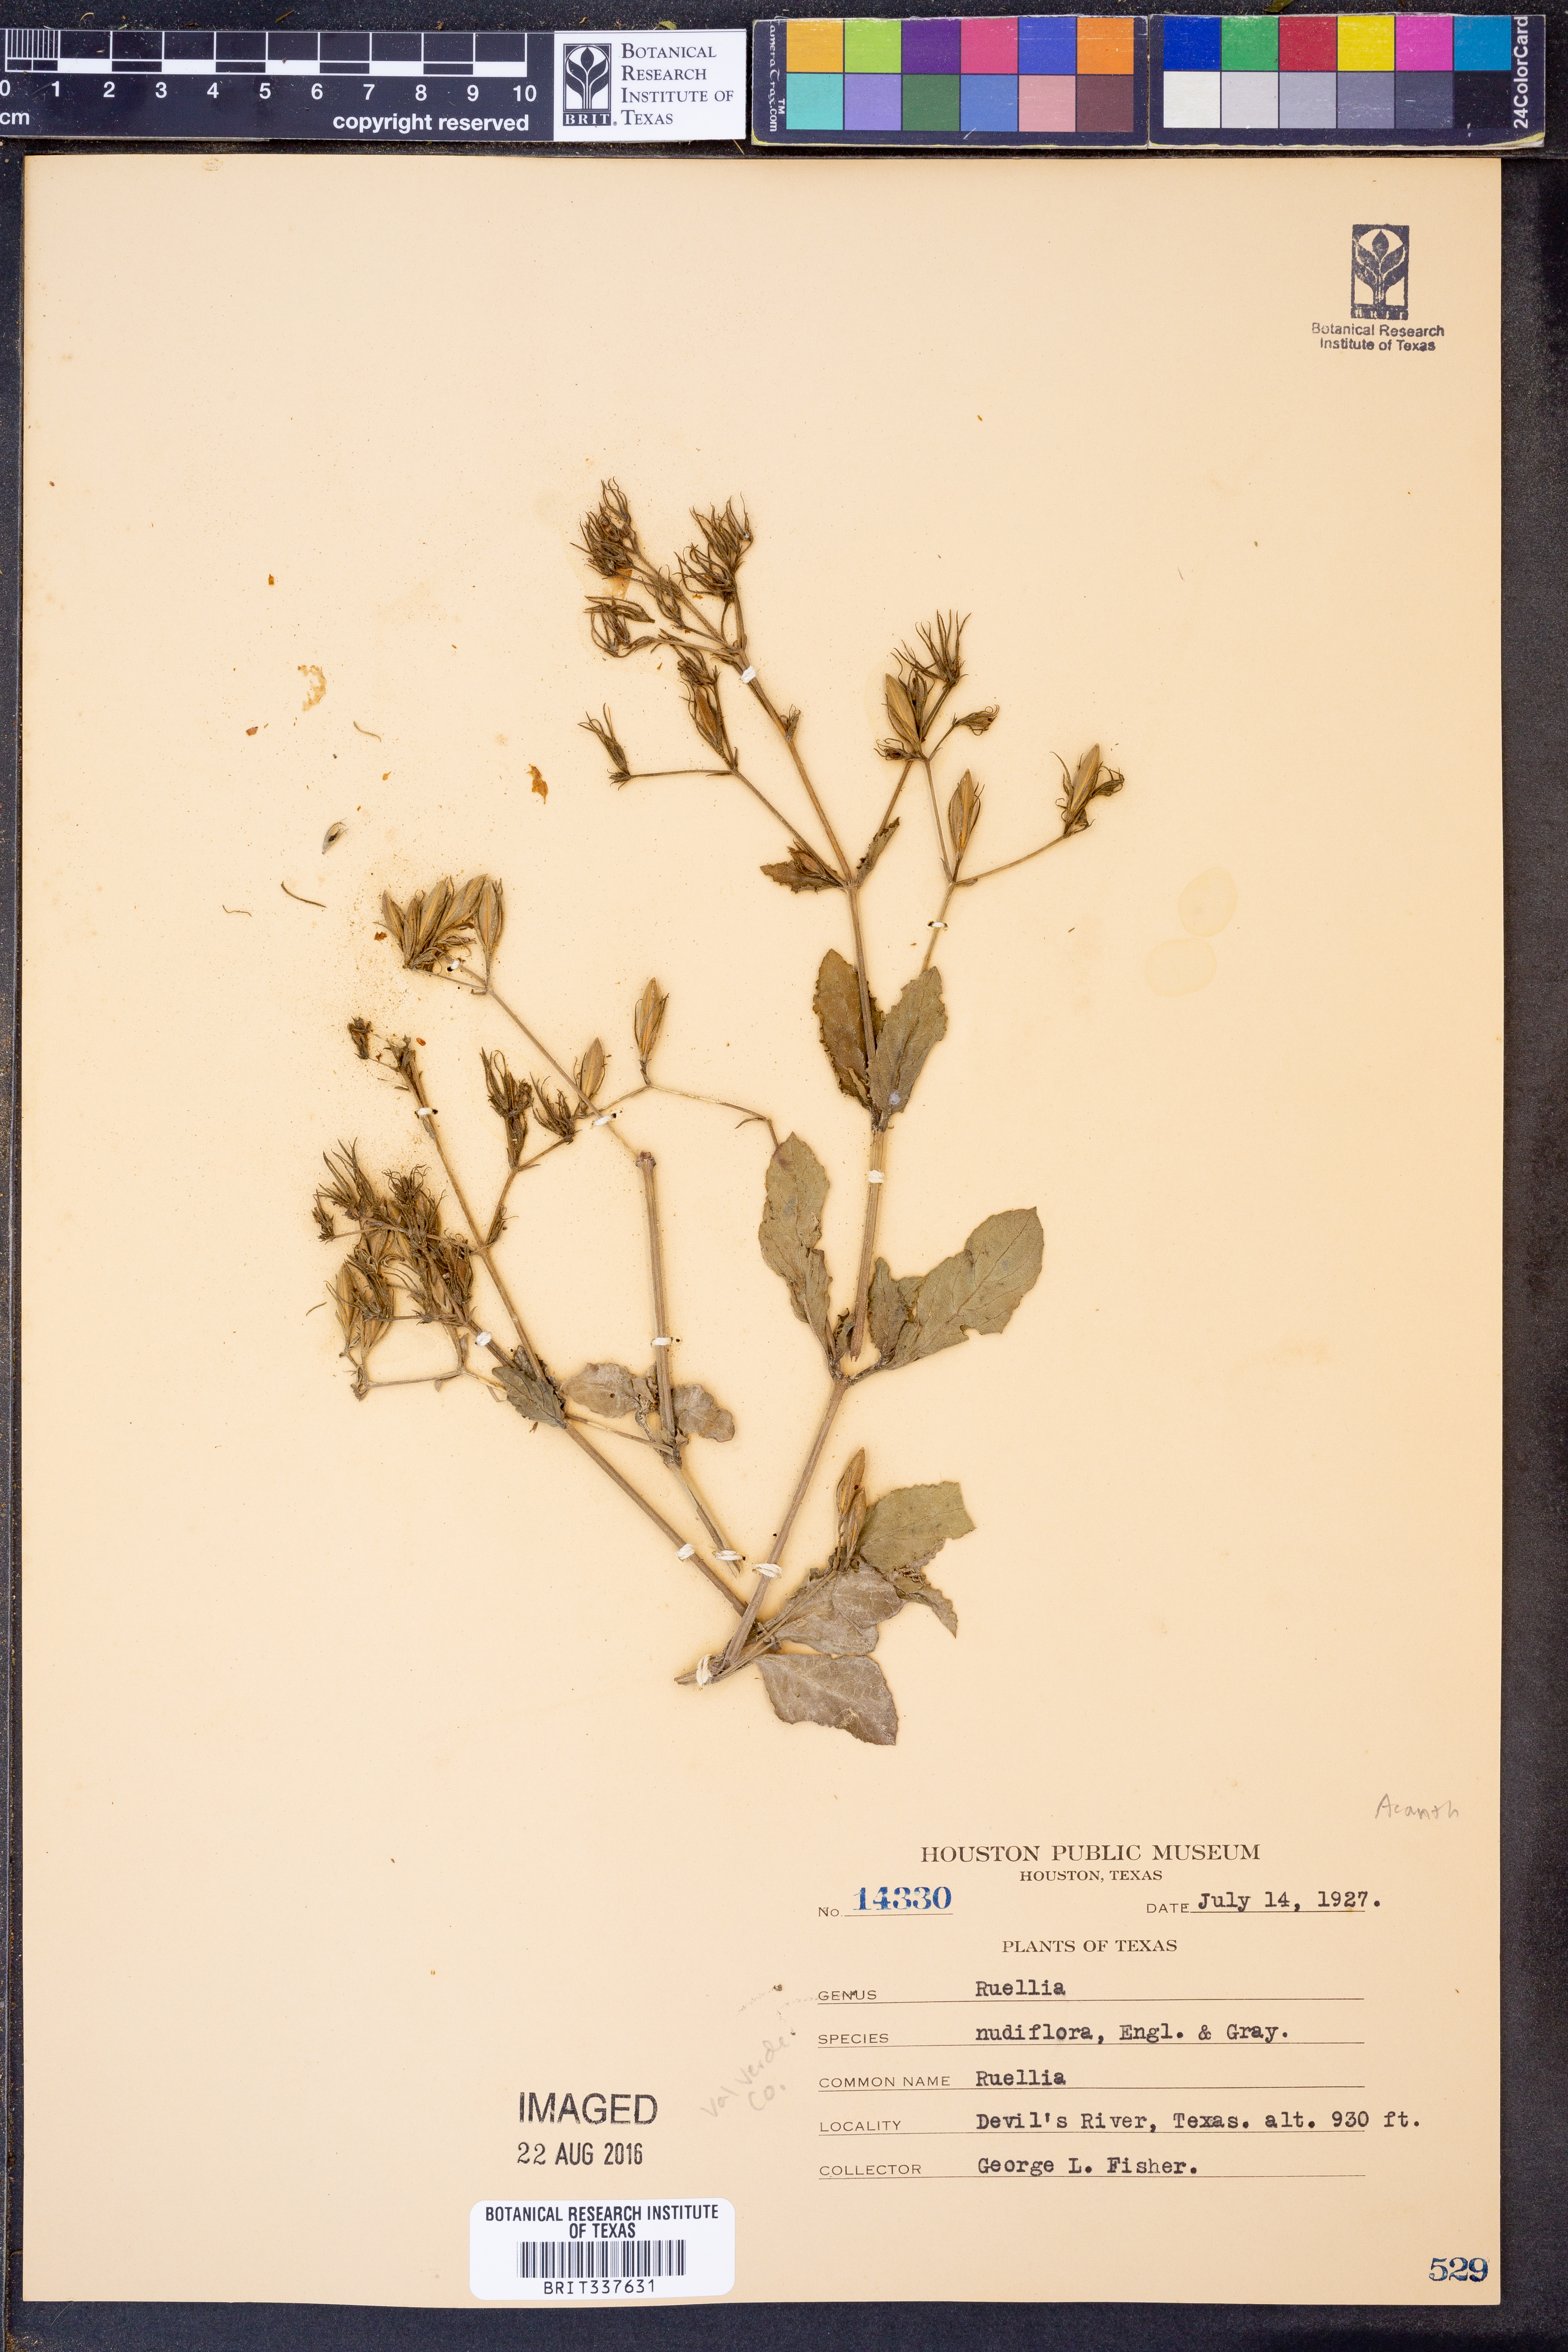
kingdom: Plantae
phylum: Tracheophyta
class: Magnoliopsida
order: Lamiales
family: Acanthaceae
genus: Ruellia
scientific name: Ruellia ciliatiflora
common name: Hairyflower wild petunia
